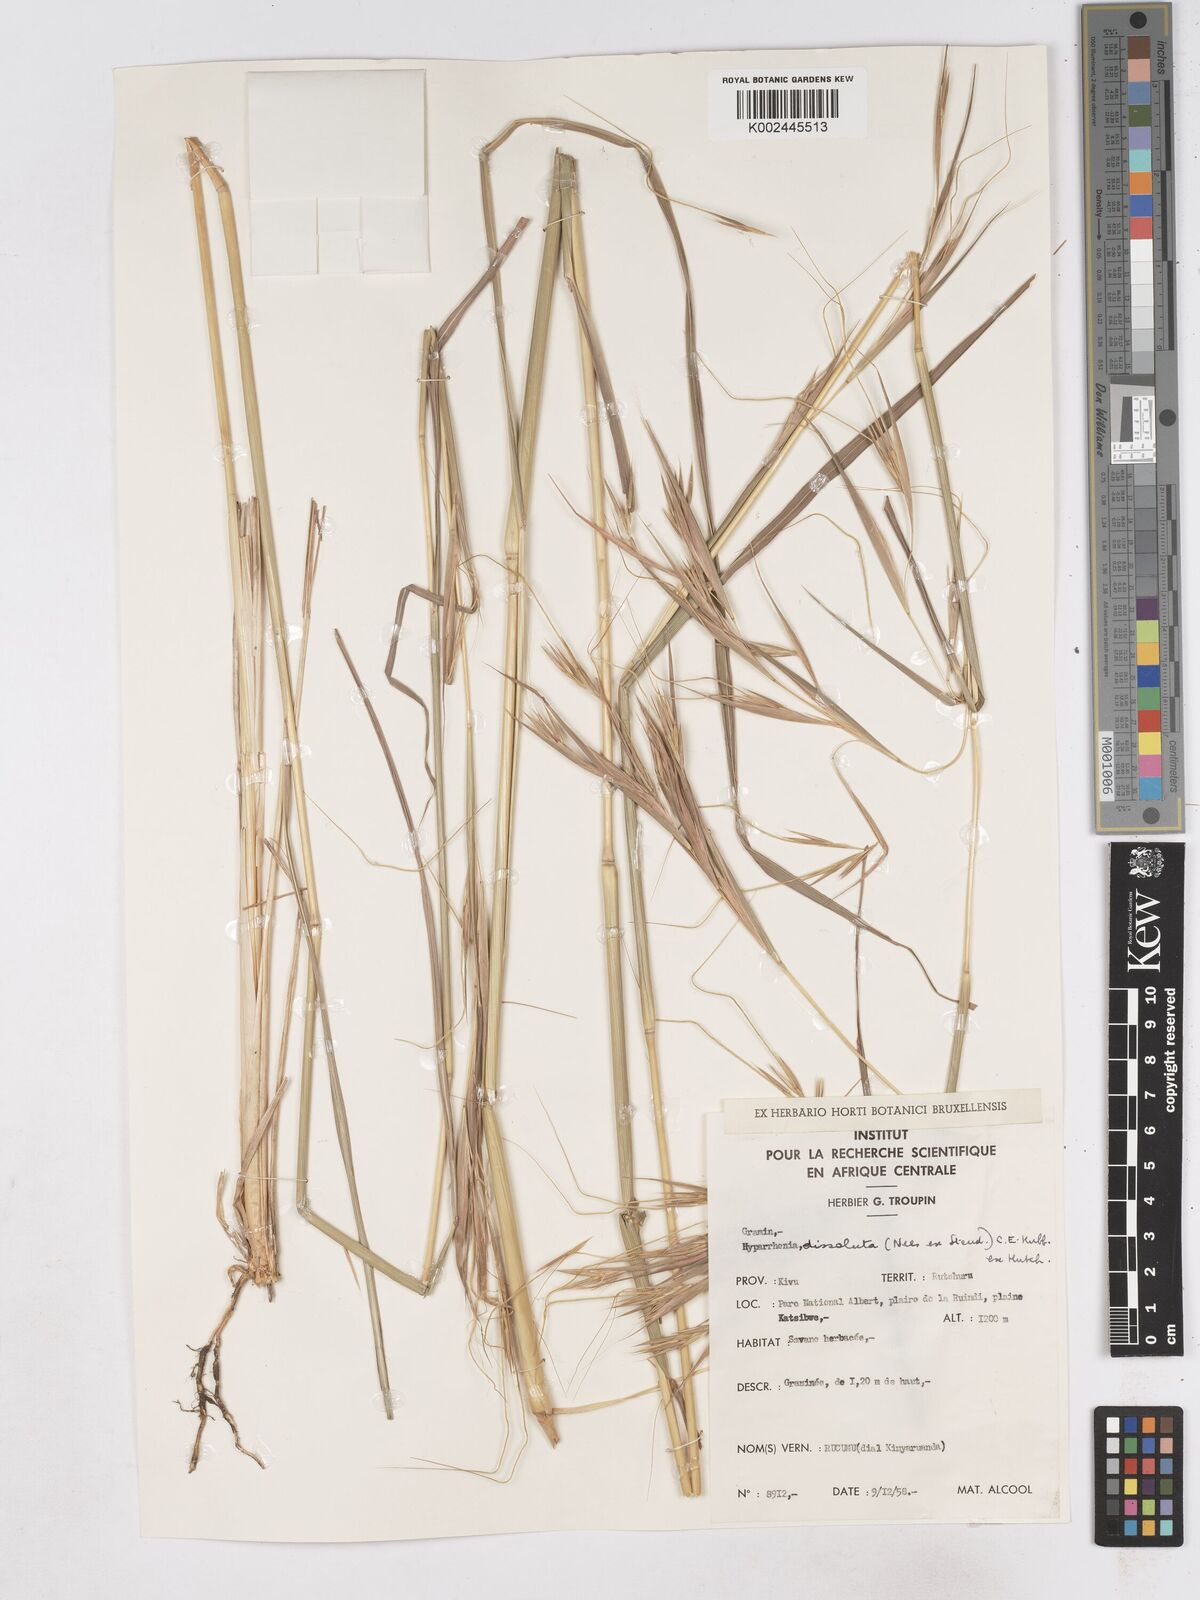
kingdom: Plantae
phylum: Tracheophyta
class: Liliopsida
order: Poales
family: Poaceae
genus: Hyperthelia
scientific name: Hyperthelia dissoluta
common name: Yellow thatching grass
